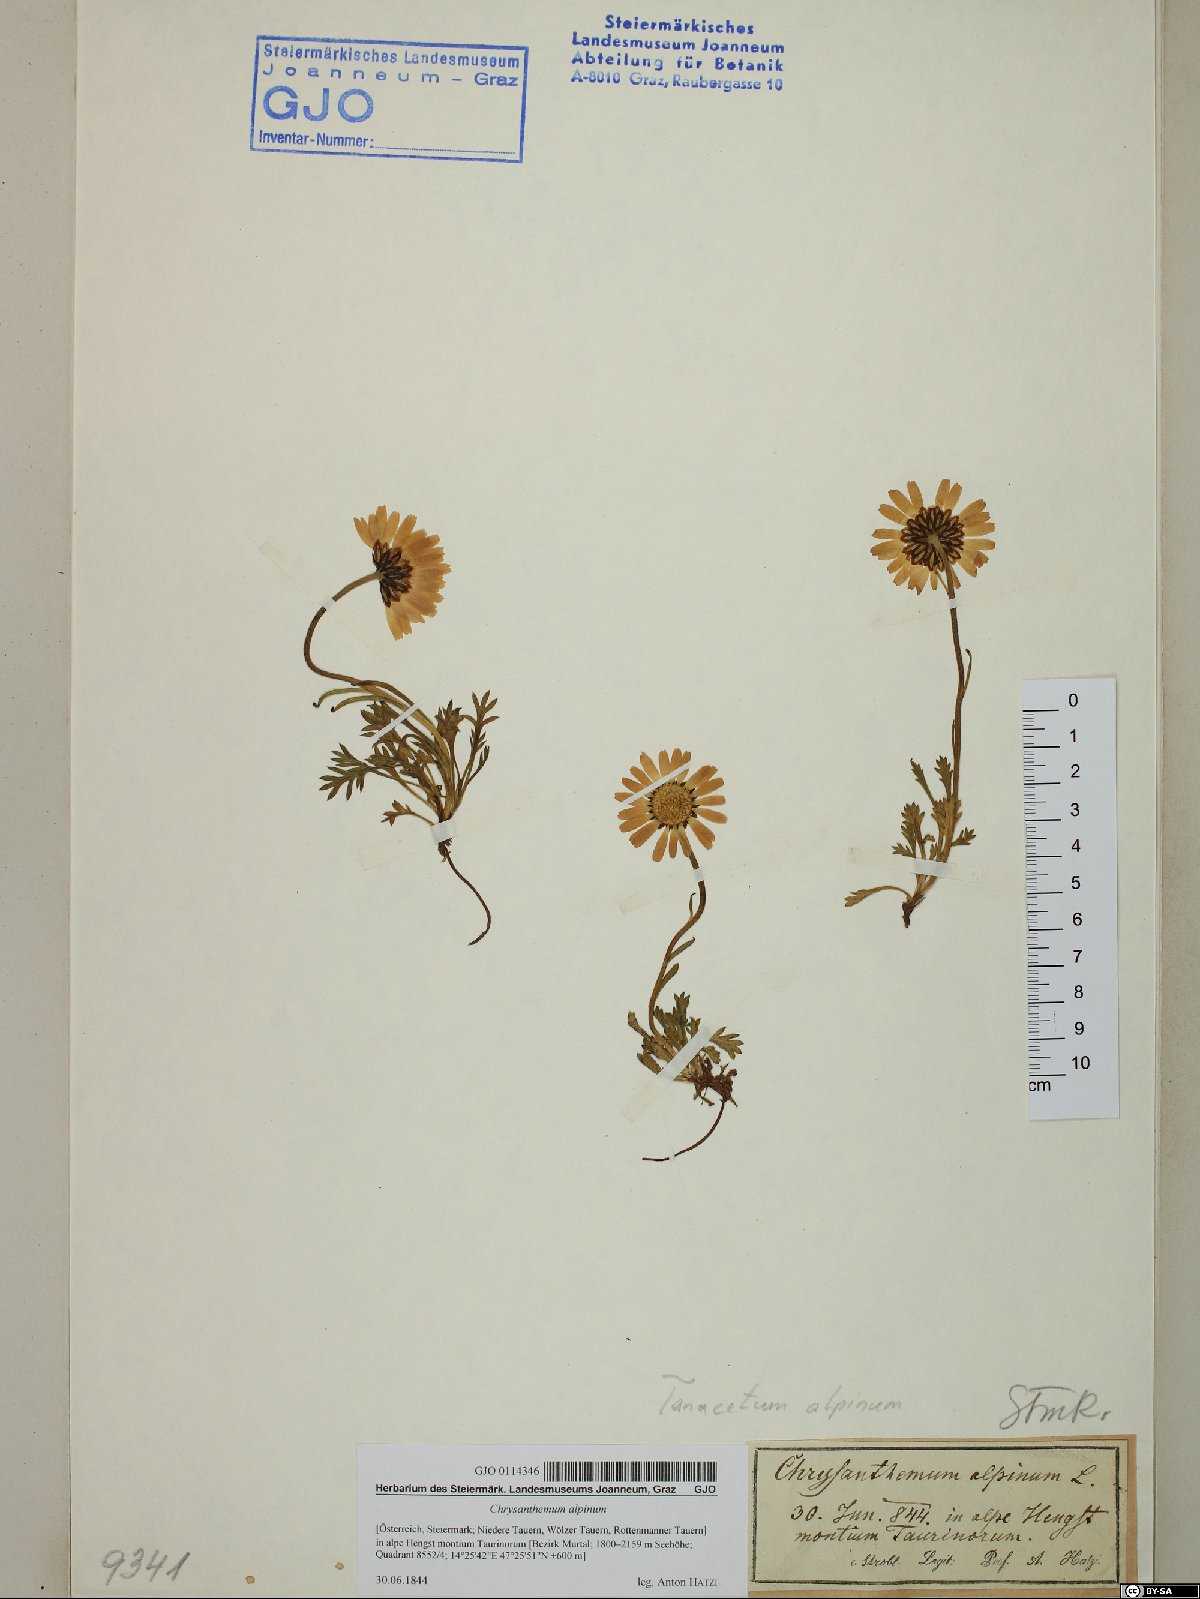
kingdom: Plantae
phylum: Tracheophyta
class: Magnoliopsida
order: Asterales
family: Asteraceae
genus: Leucanthemopsis
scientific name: Leucanthemopsis alpina
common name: Alpine moon daisy
